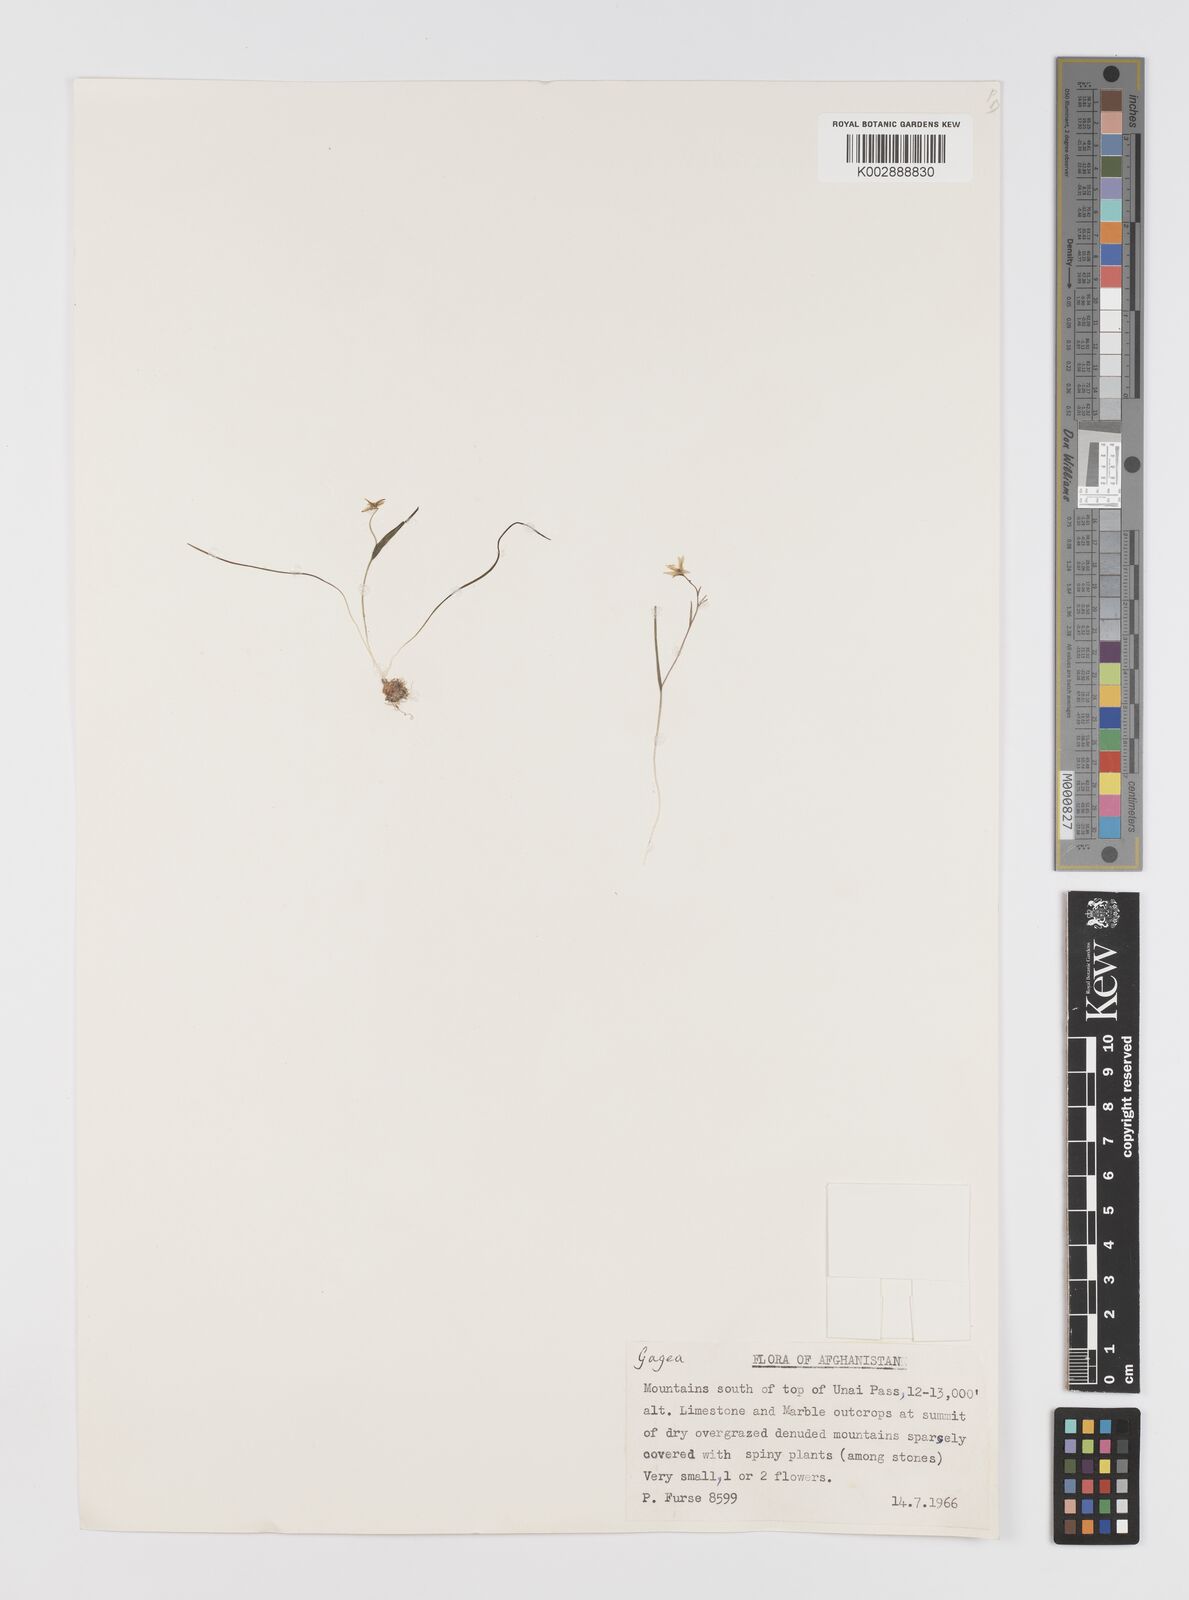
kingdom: Plantae
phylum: Tracheophyta
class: Liliopsida
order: Liliales
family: Liliaceae
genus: Gagea
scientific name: Gagea
